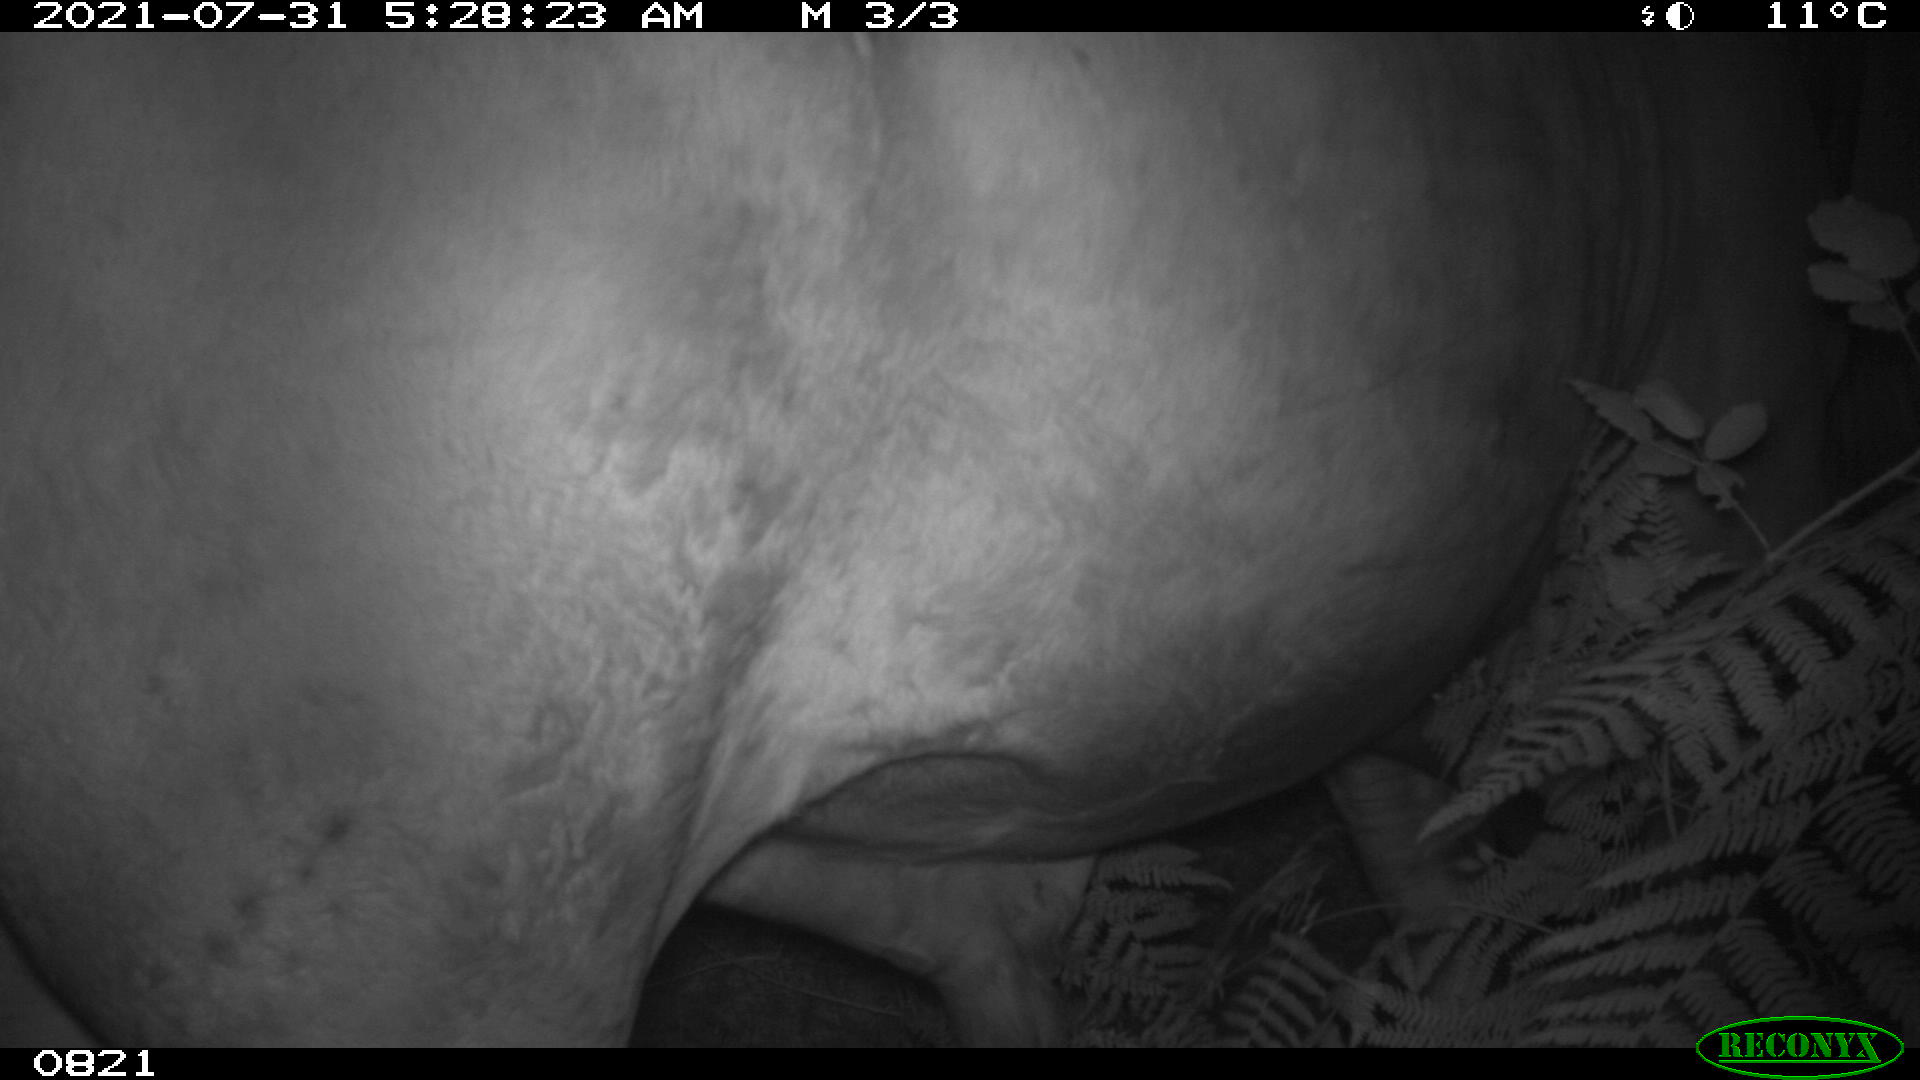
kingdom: Animalia
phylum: Chordata
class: Mammalia
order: Artiodactyla
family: Bovidae
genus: Bos
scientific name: Bos taurus
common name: Domesticated cattle
